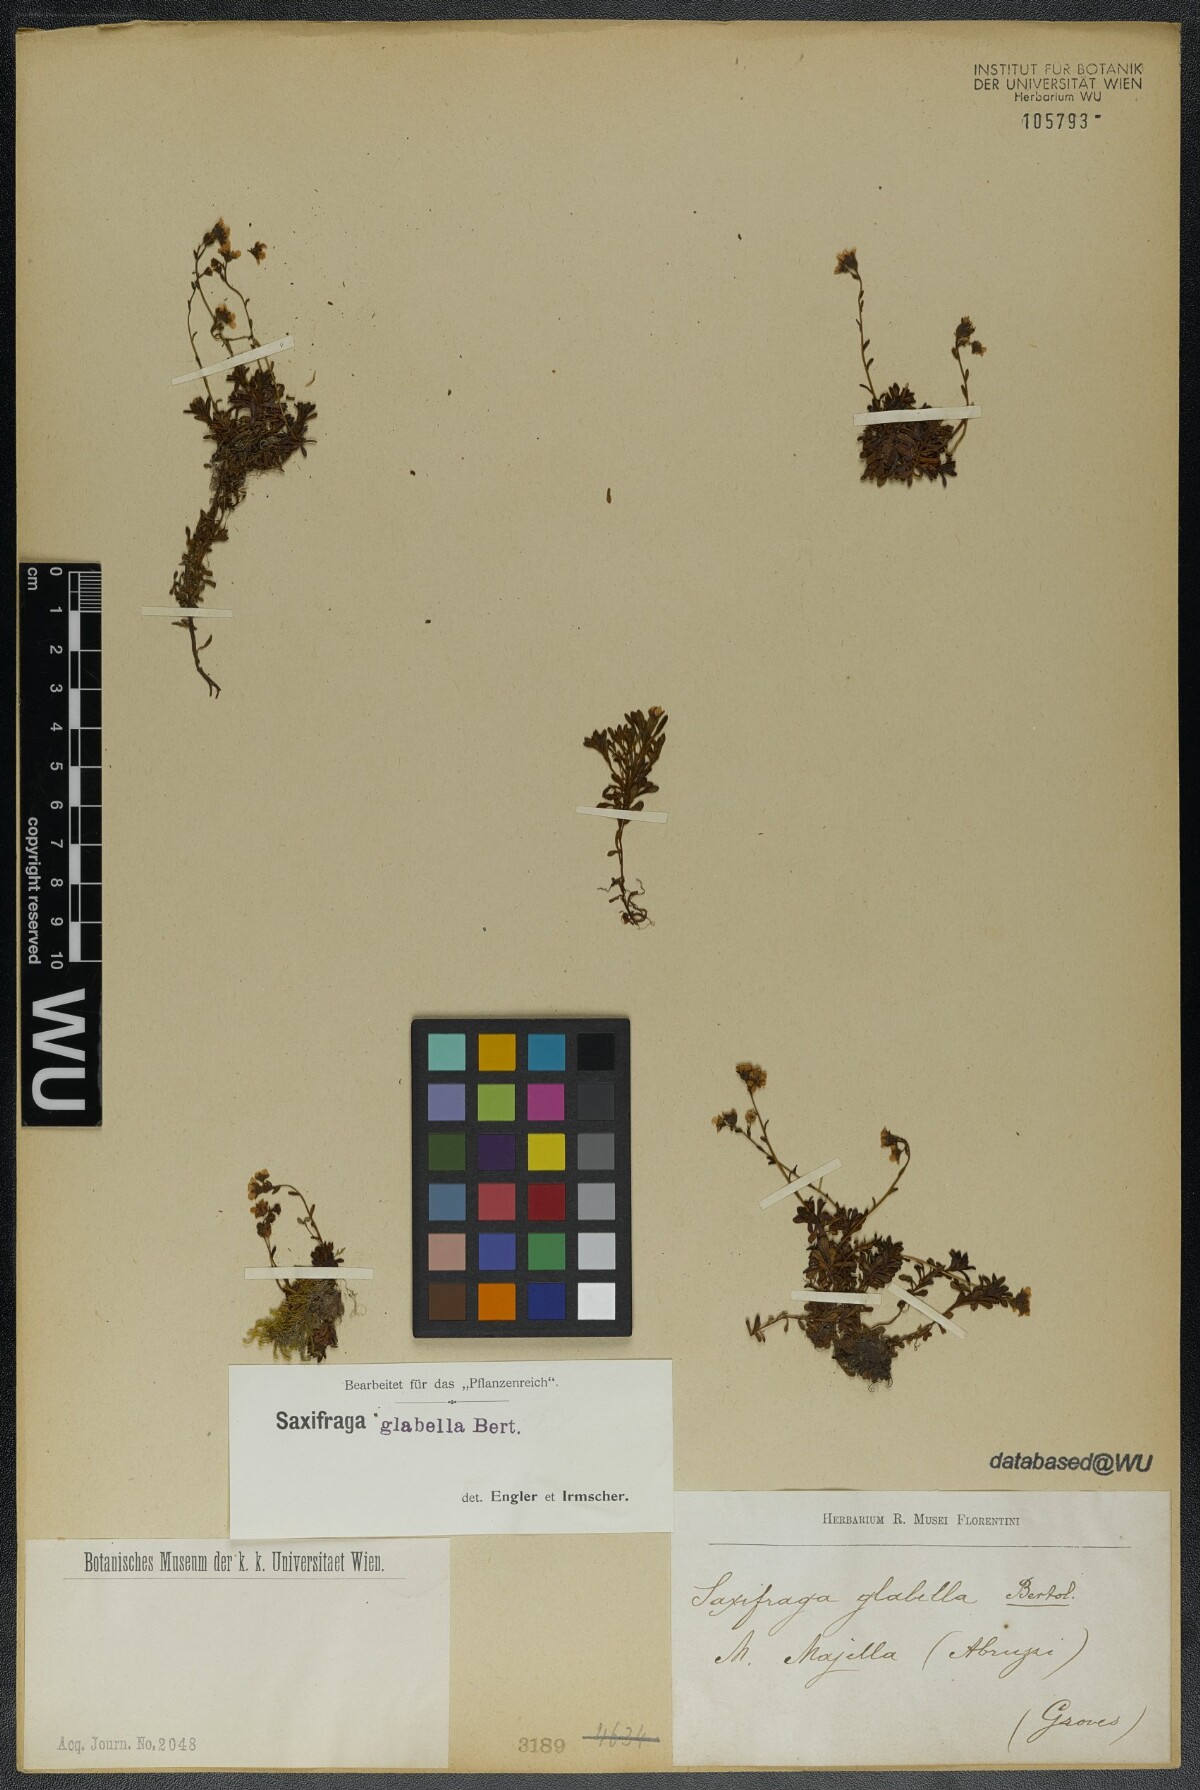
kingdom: Plantae
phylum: Tracheophyta
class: Magnoliopsida
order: Saxifragales
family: Saxifragaceae
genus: Saxifraga
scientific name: Saxifraga glabella
